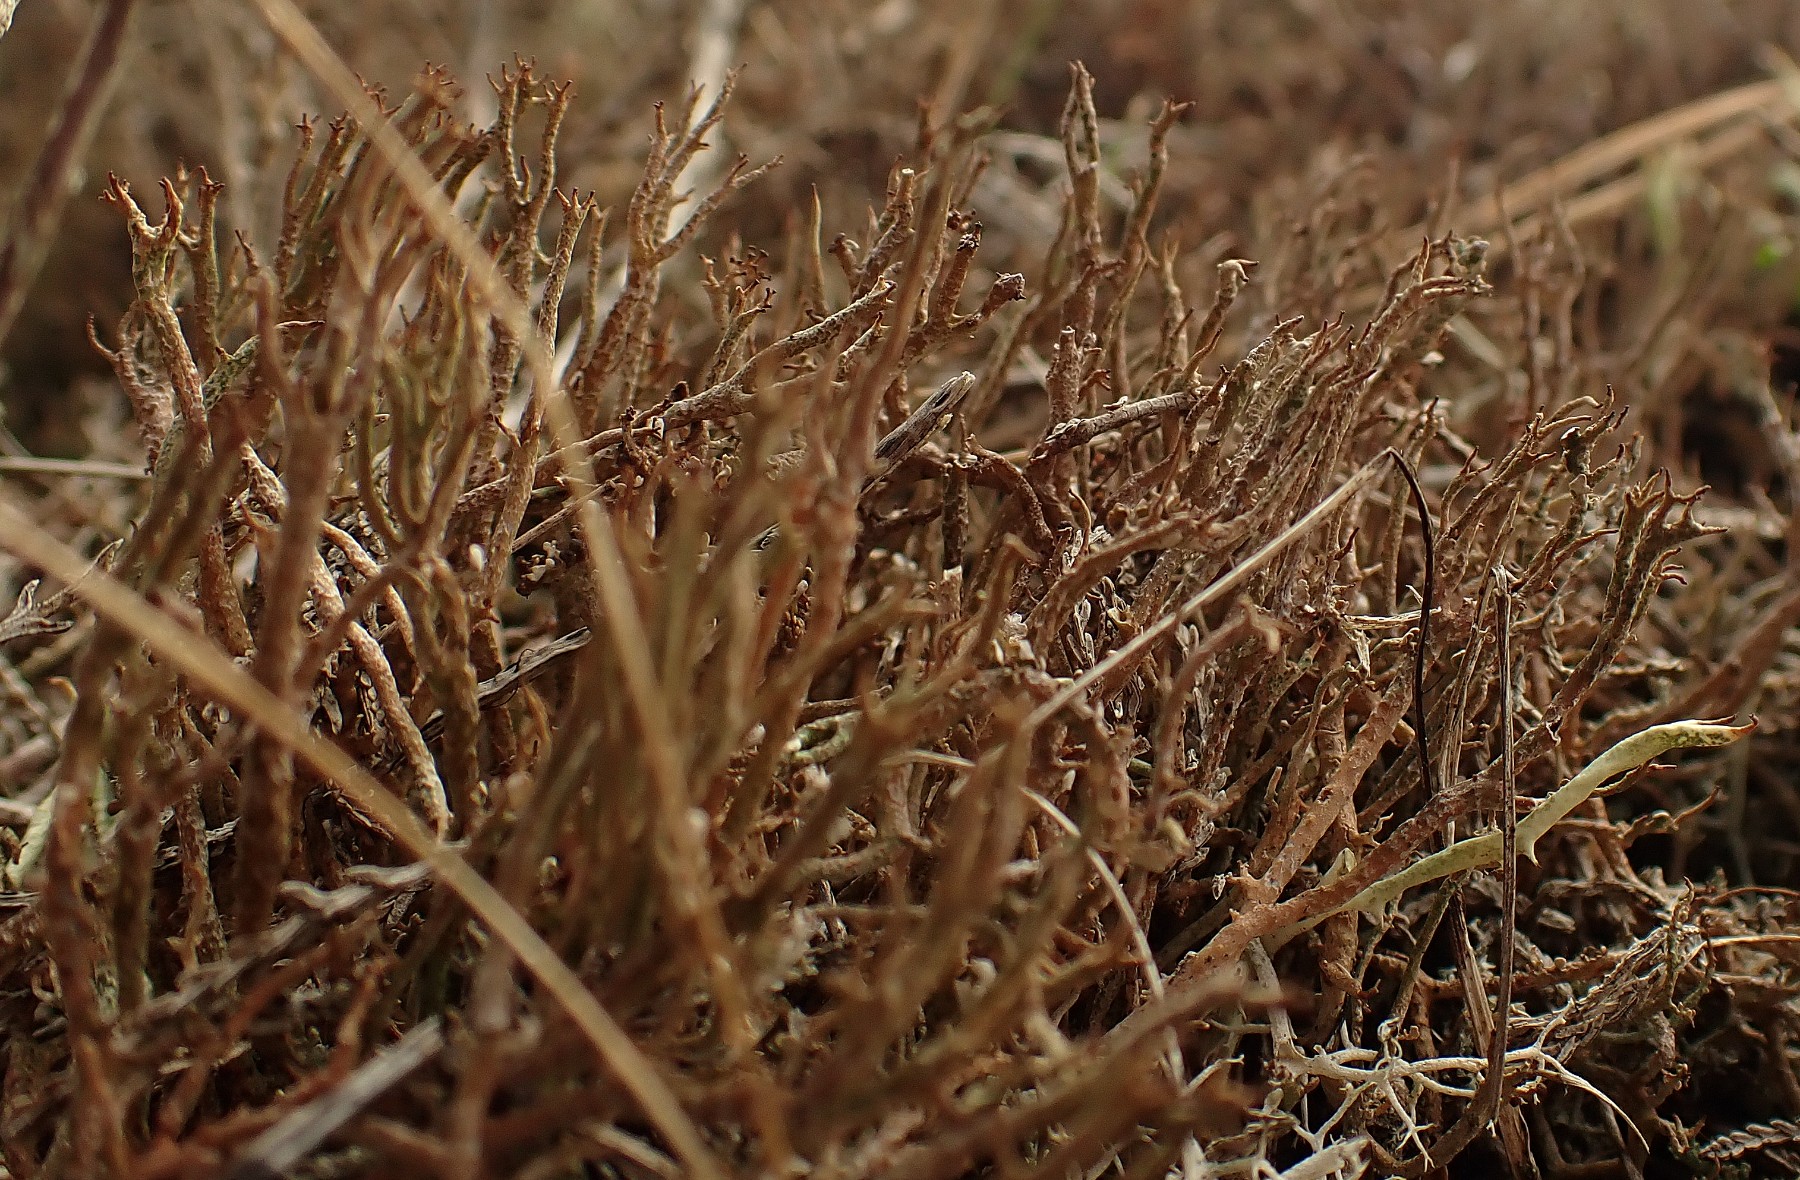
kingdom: Fungi
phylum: Ascomycota
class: Lecanoromycetes
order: Lecanorales
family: Cladoniaceae
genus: Cladonia
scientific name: Cladonia scabriuscula
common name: ru bægerlav
